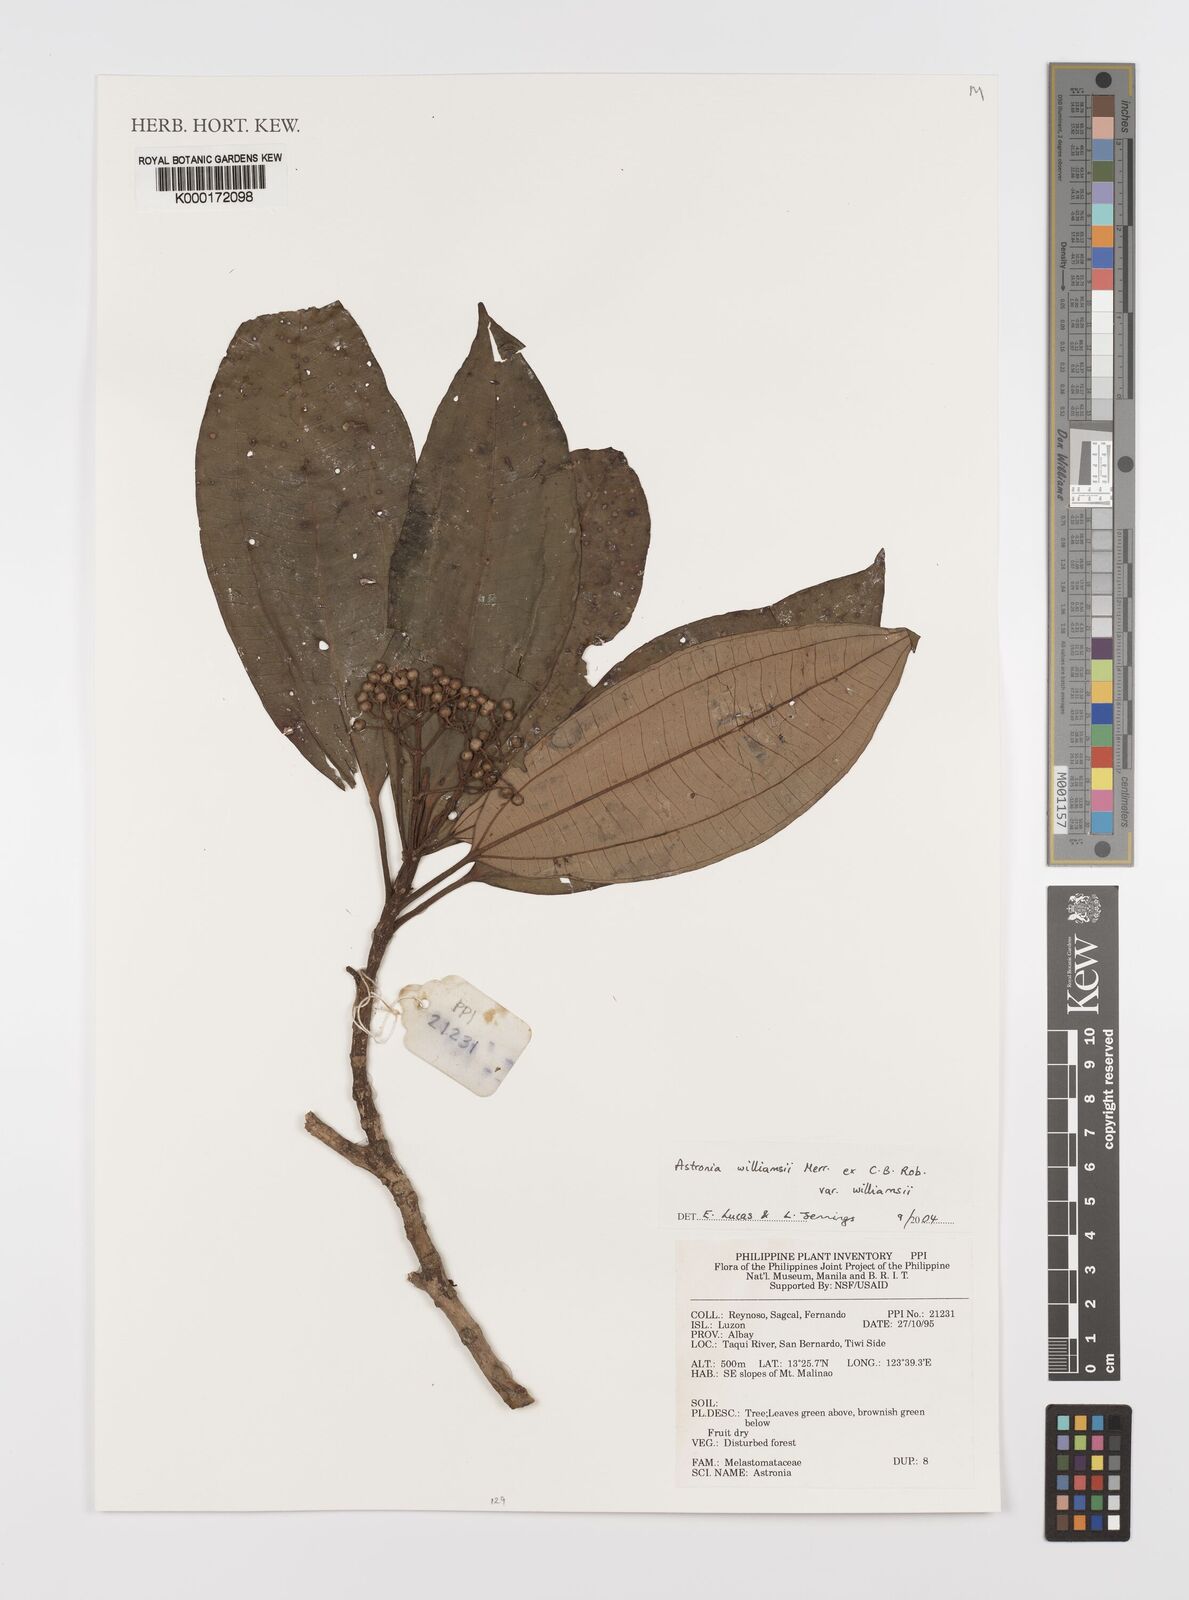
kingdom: Plantae
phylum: Tracheophyta
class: Magnoliopsida
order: Myrtales
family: Melastomataceae
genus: Astronia
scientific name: Astronia williamsii
